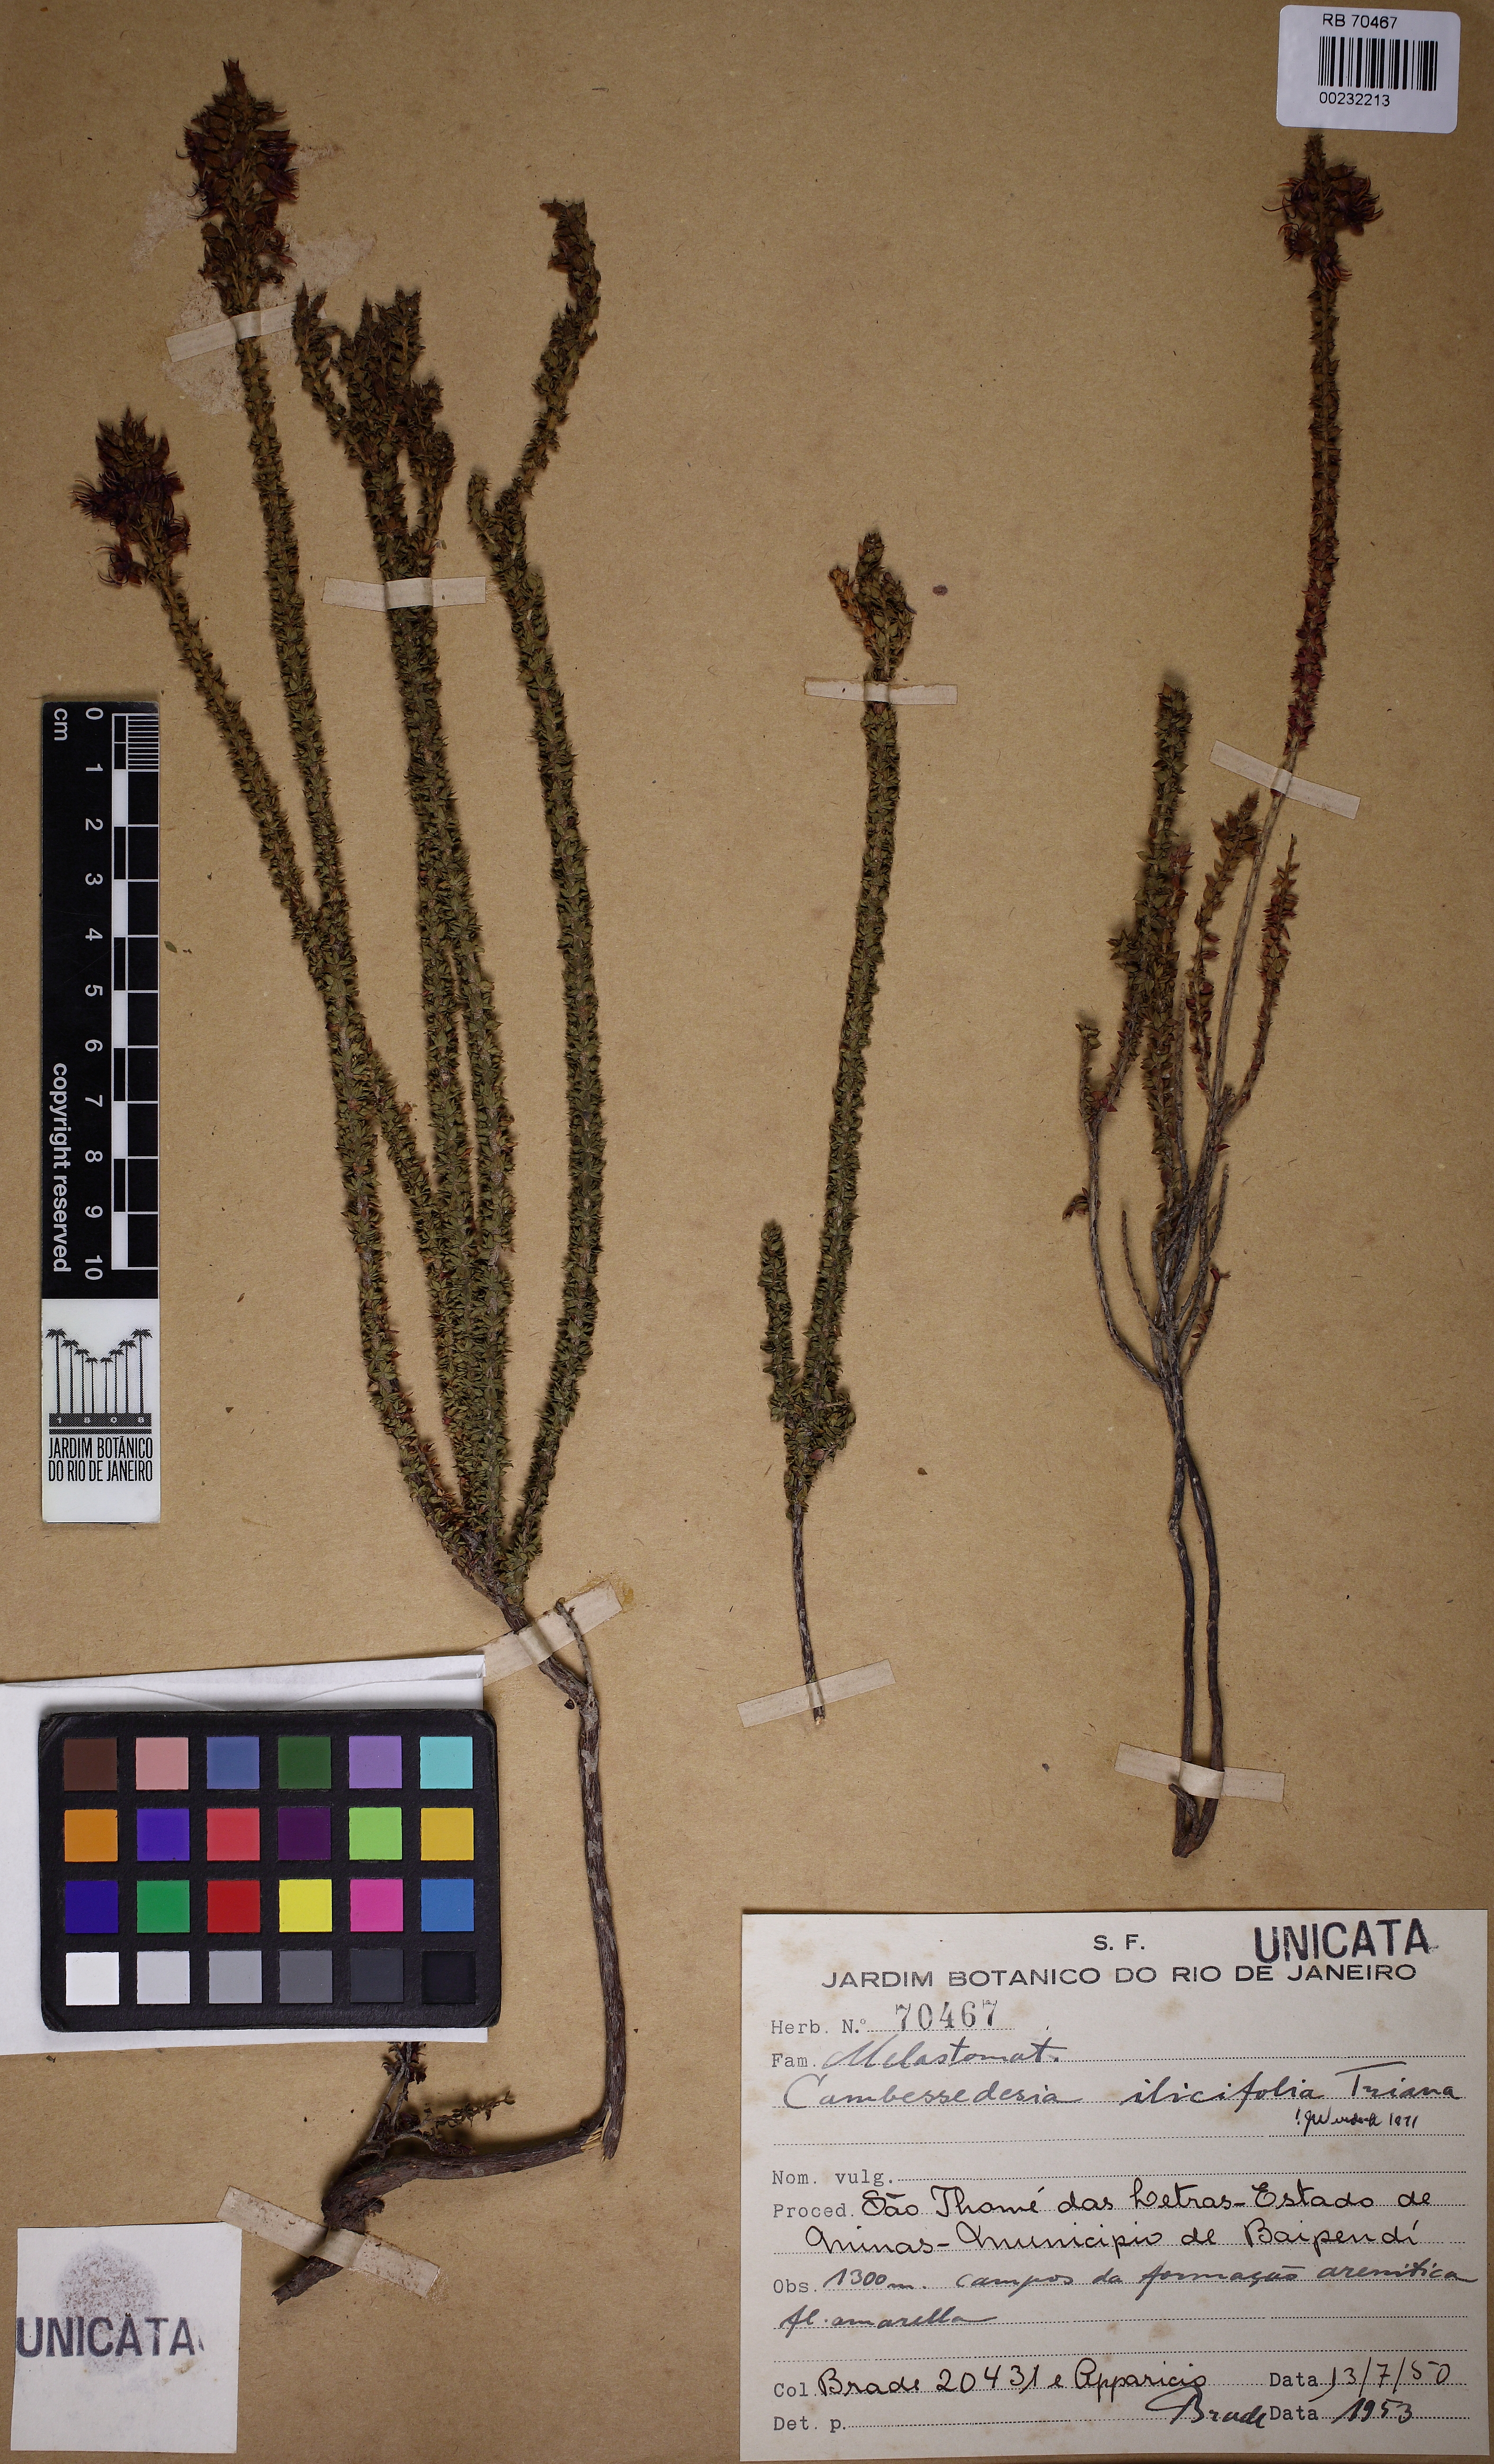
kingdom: Plantae
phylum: Tracheophyta
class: Magnoliopsida
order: Myrtales
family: Melastomataceae
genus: Cambessedesia
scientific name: Cambessedesia espora
